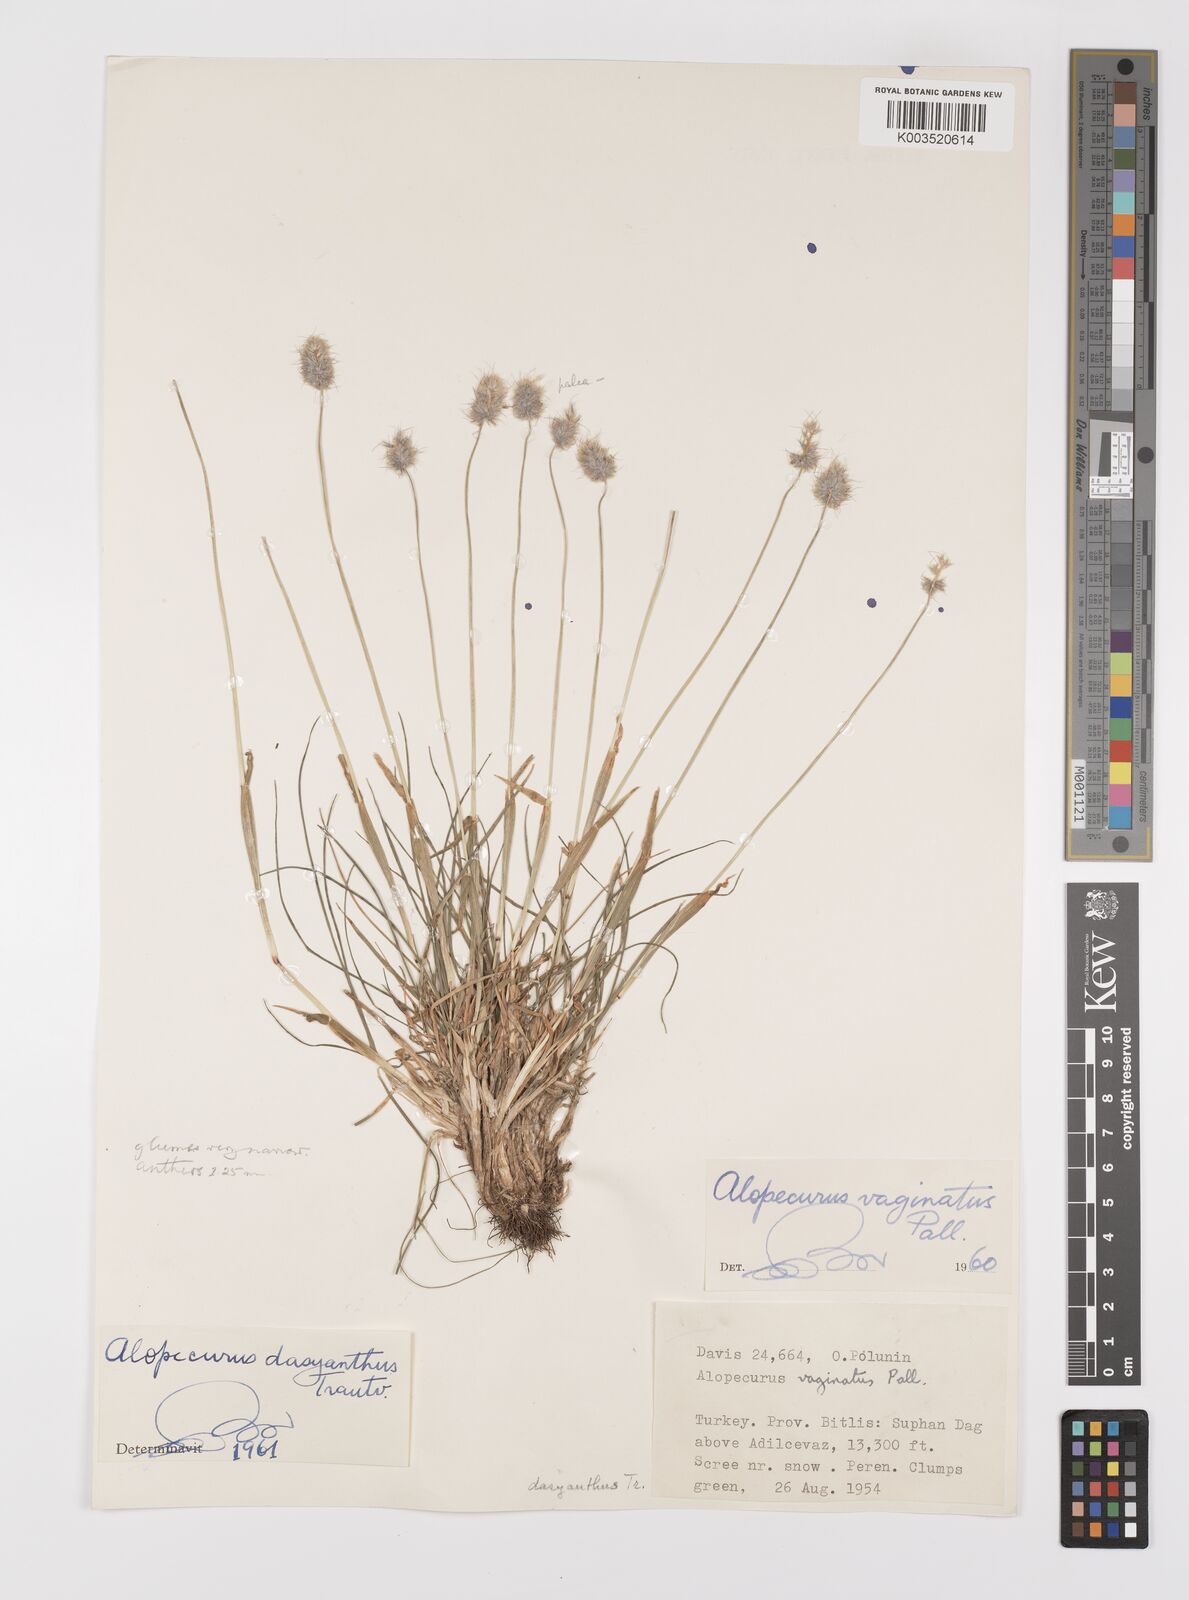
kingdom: Plantae
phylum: Tracheophyta
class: Liliopsida
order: Poales
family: Poaceae
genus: Alopecurus
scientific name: Alopecurus dasyanthus
